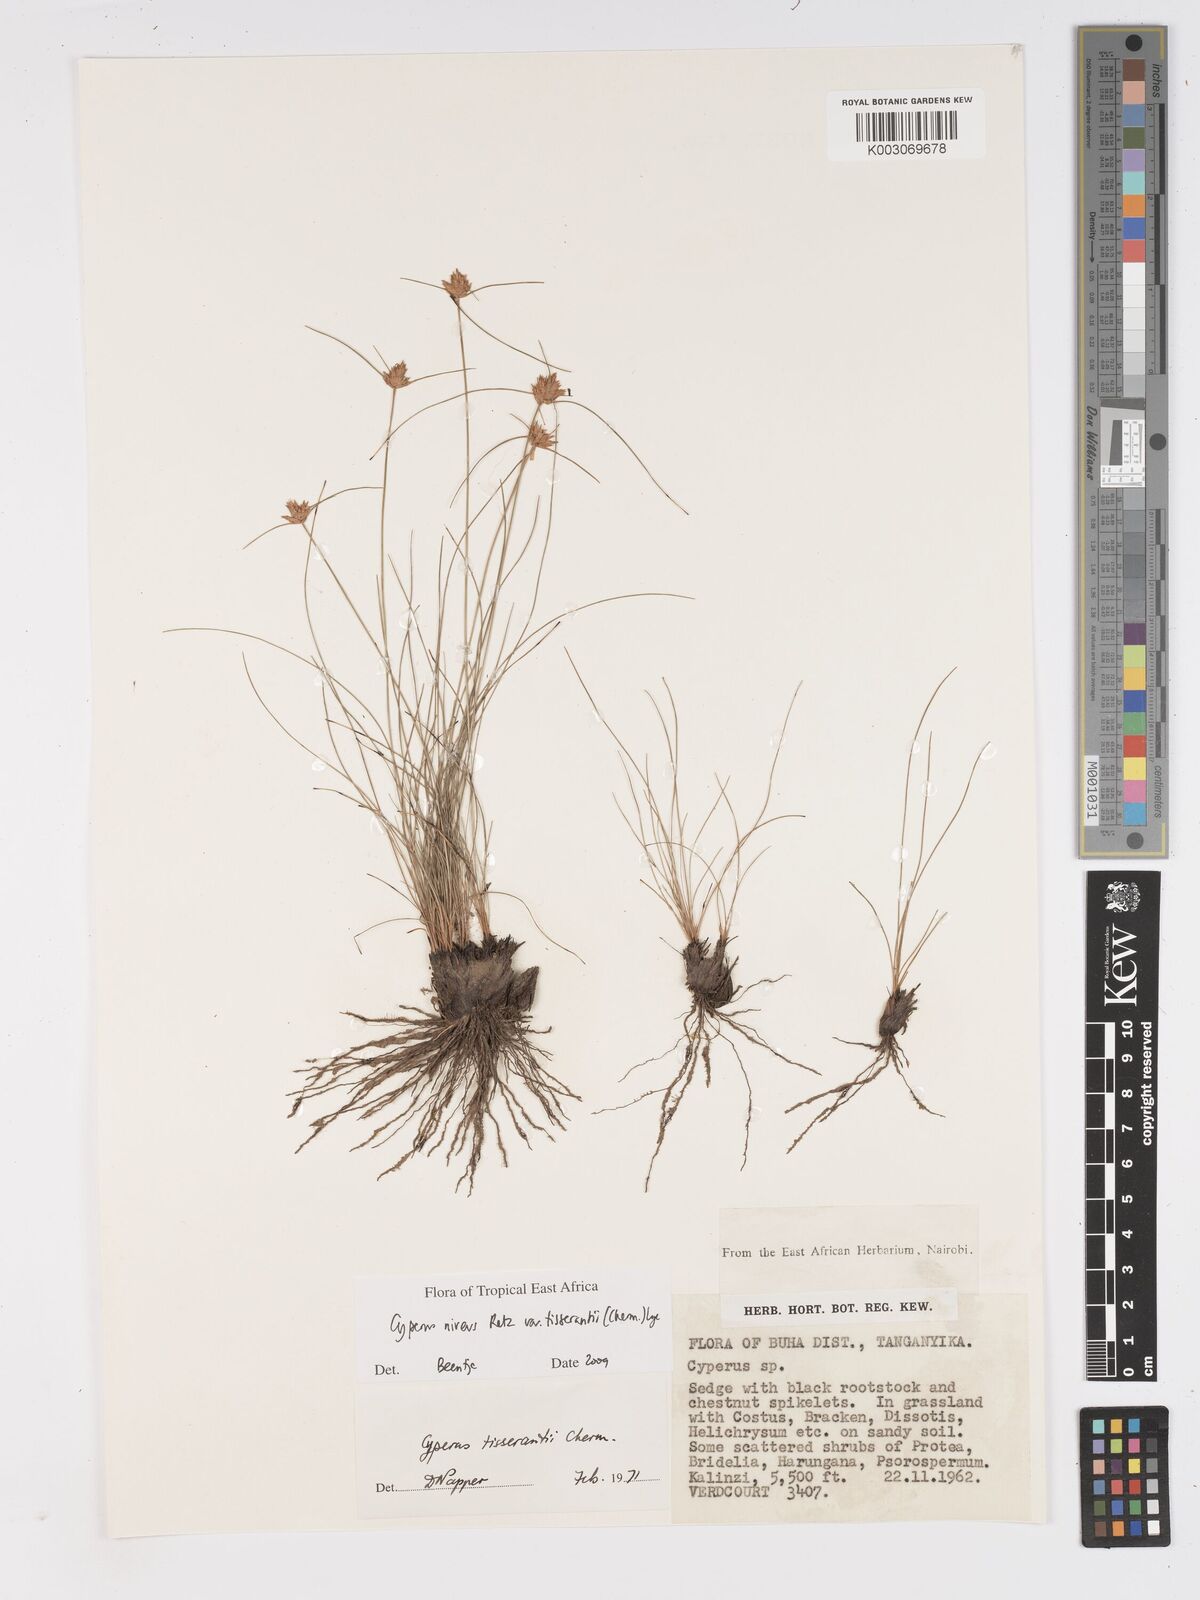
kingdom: Plantae
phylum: Tracheophyta
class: Liliopsida
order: Poales
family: Cyperaceae
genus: Cyperus
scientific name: Cyperus niveus
